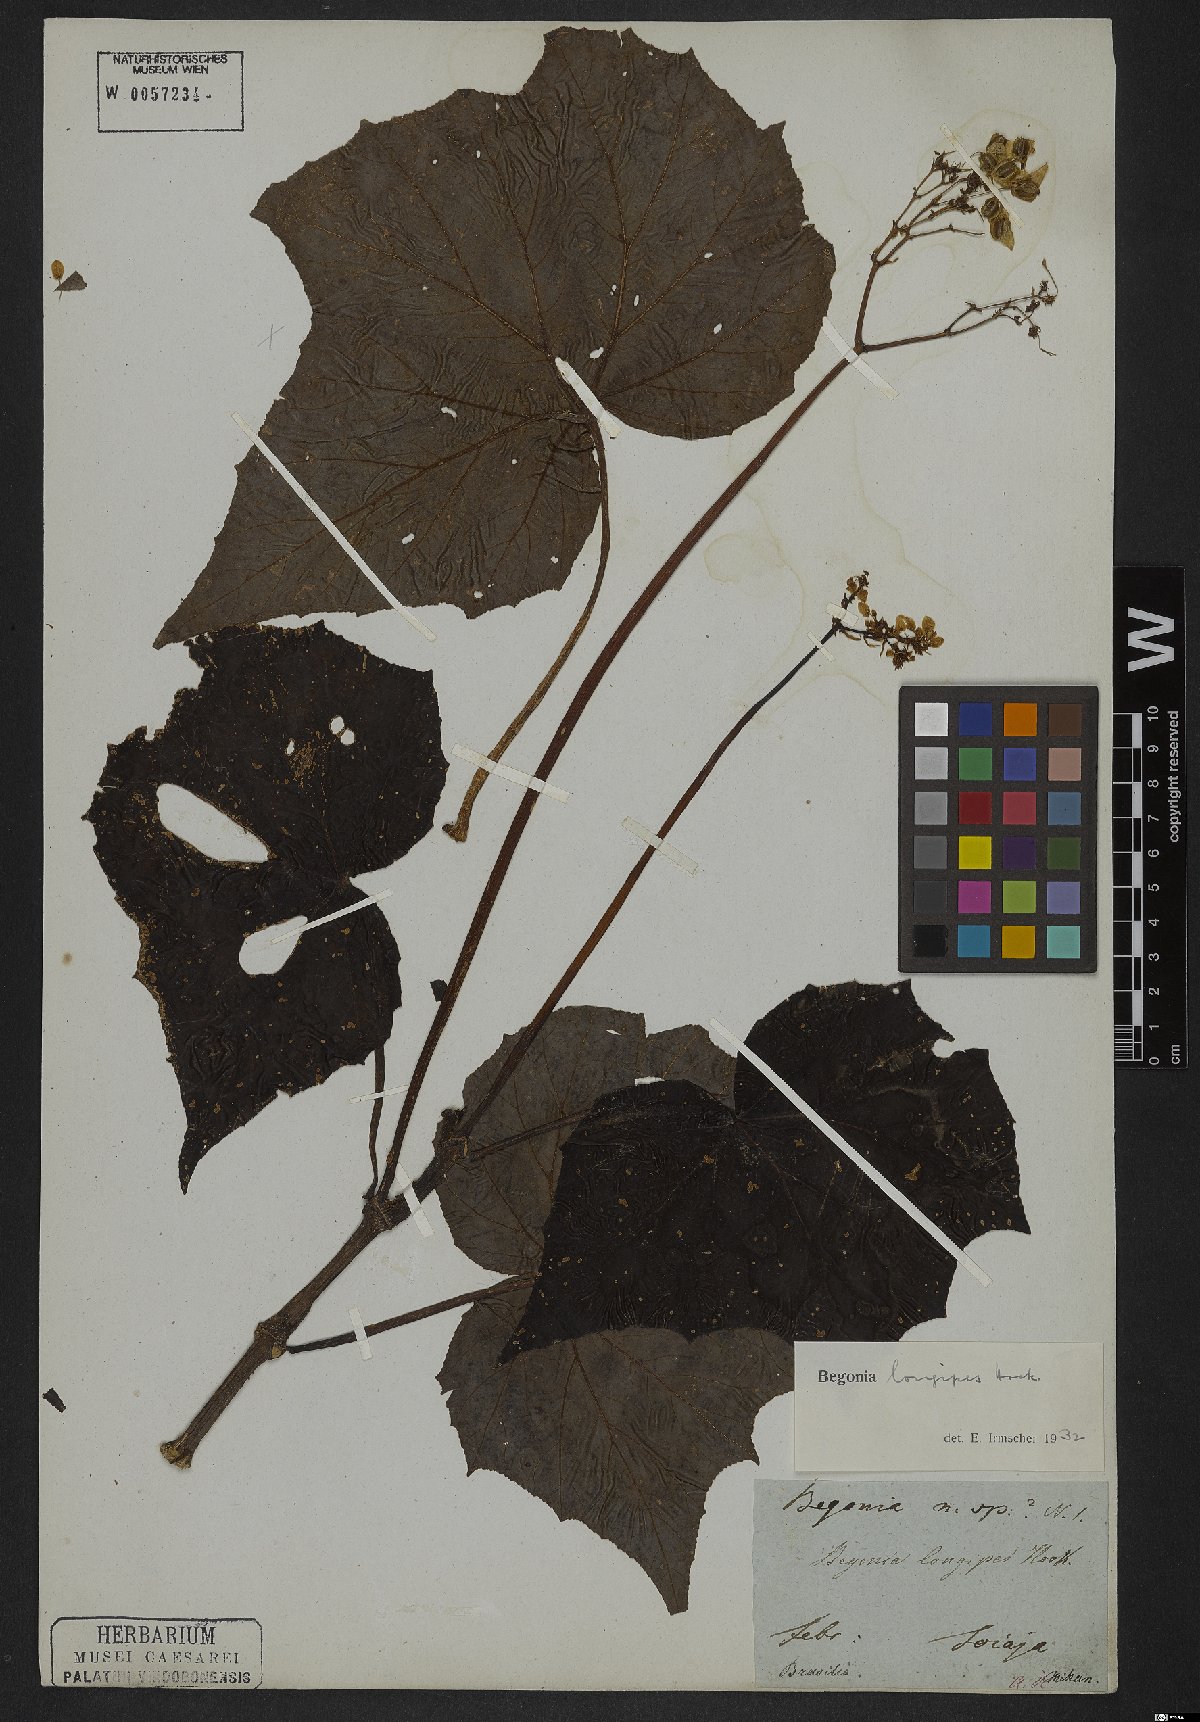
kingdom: Plantae
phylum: Tracheophyta
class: Magnoliopsida
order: Cucurbitales
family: Begoniaceae
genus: Begonia
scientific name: Begonia reniformis
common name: Grapeleaf begonia
